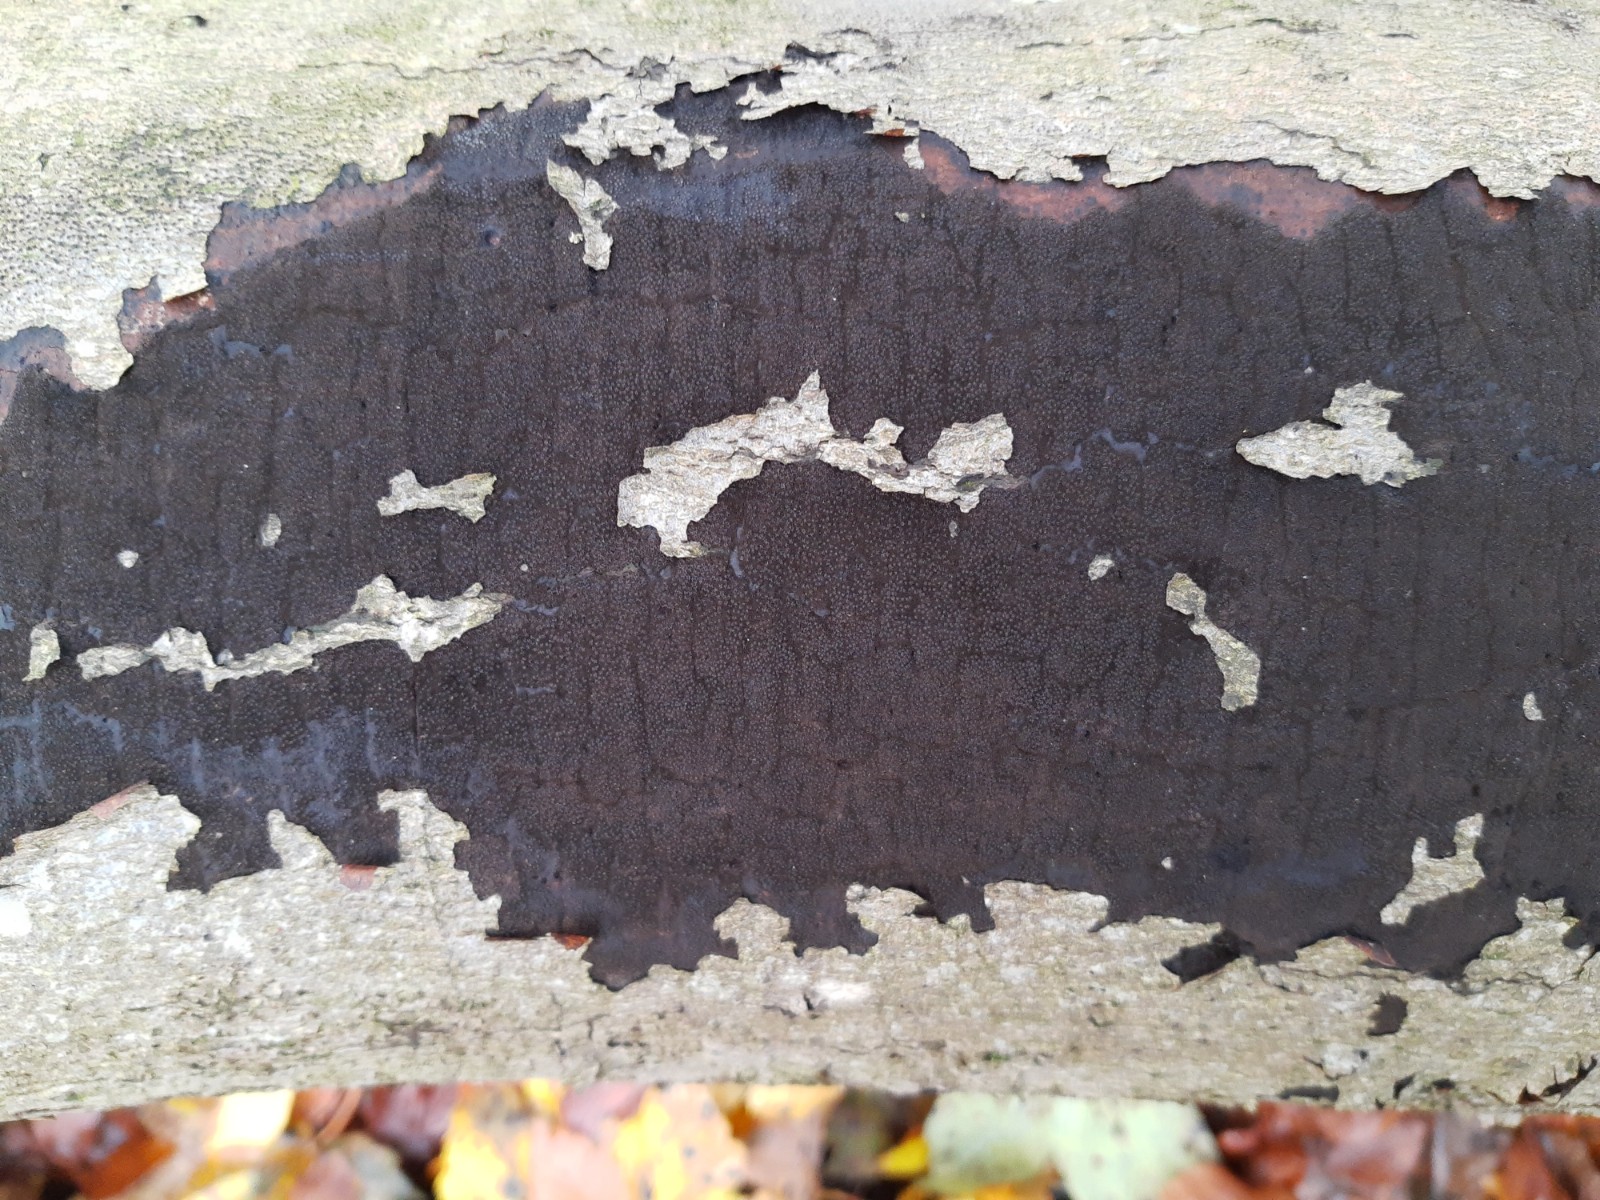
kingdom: Fungi
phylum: Ascomycota
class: Sordariomycetes
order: Xylariales
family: Diatrypaceae
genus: Eutypa
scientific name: Eutypa spinosa
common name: grov kulskorpe
